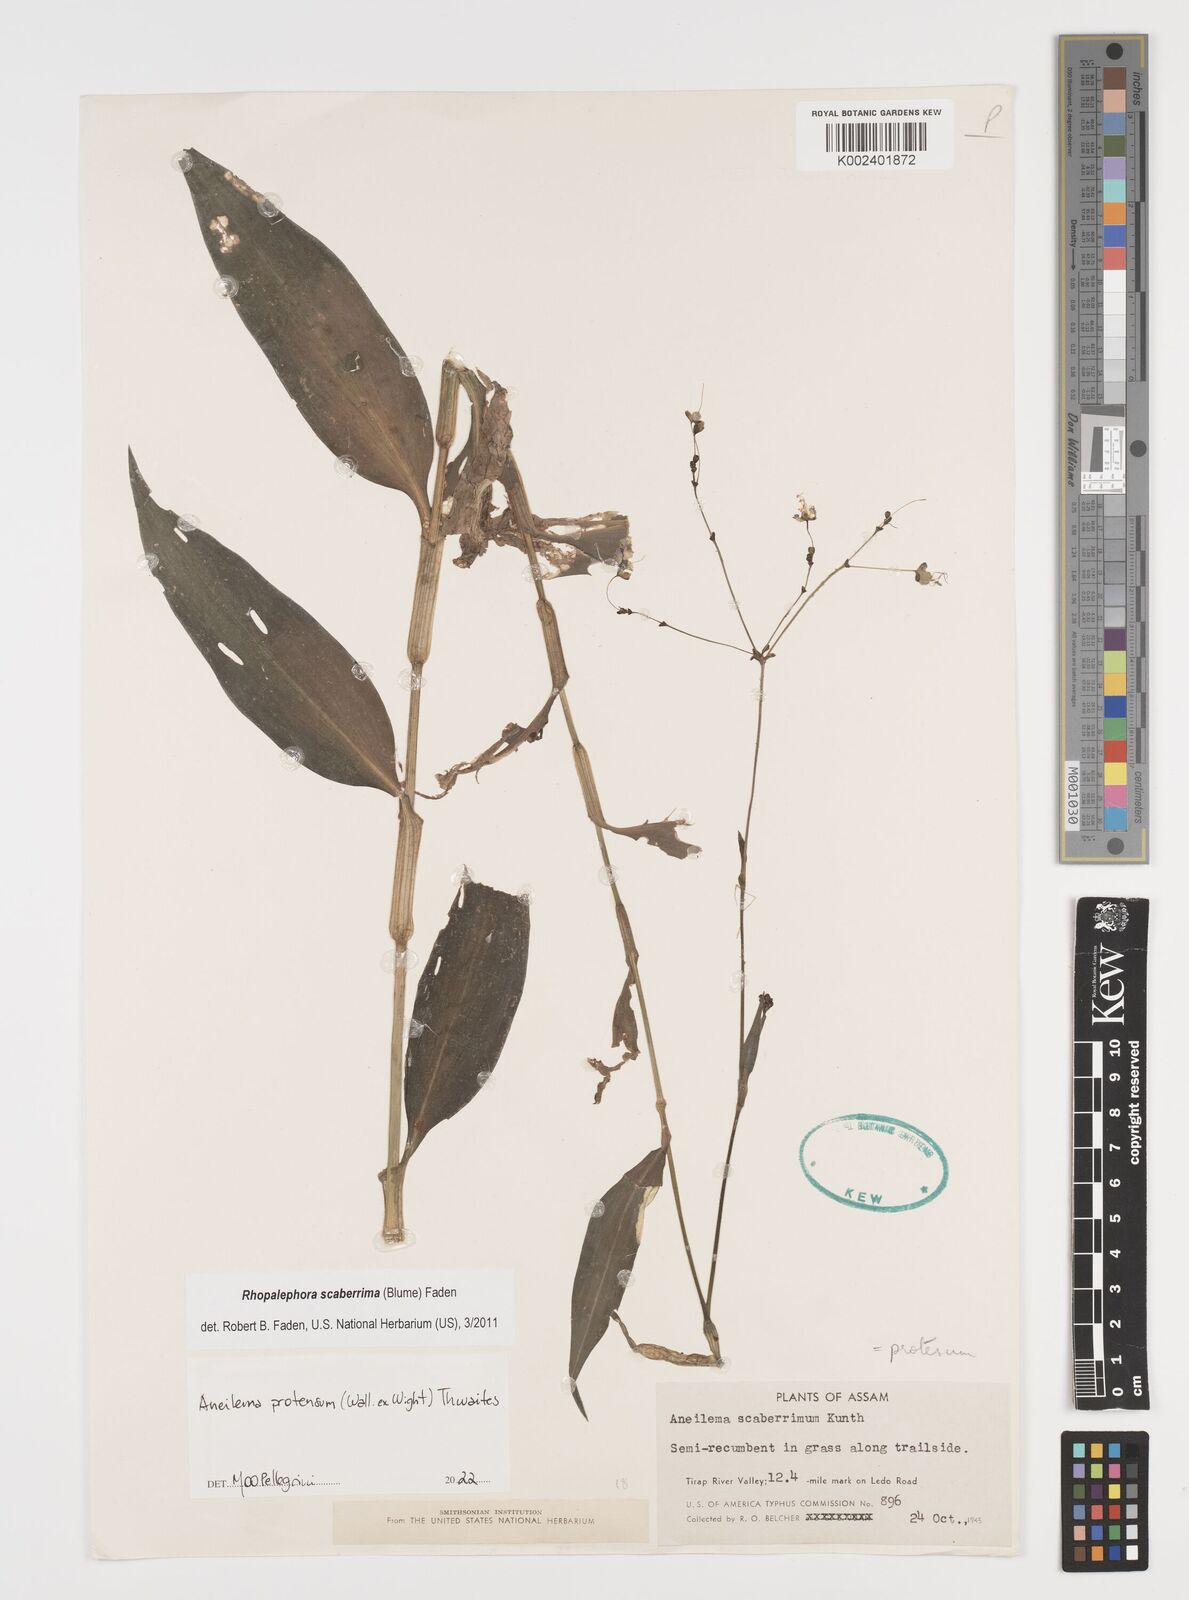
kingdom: Plantae
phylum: Tracheophyta
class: Liliopsida
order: Commelinales
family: Commelinaceae
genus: Rhopalephora
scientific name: Rhopalephora
